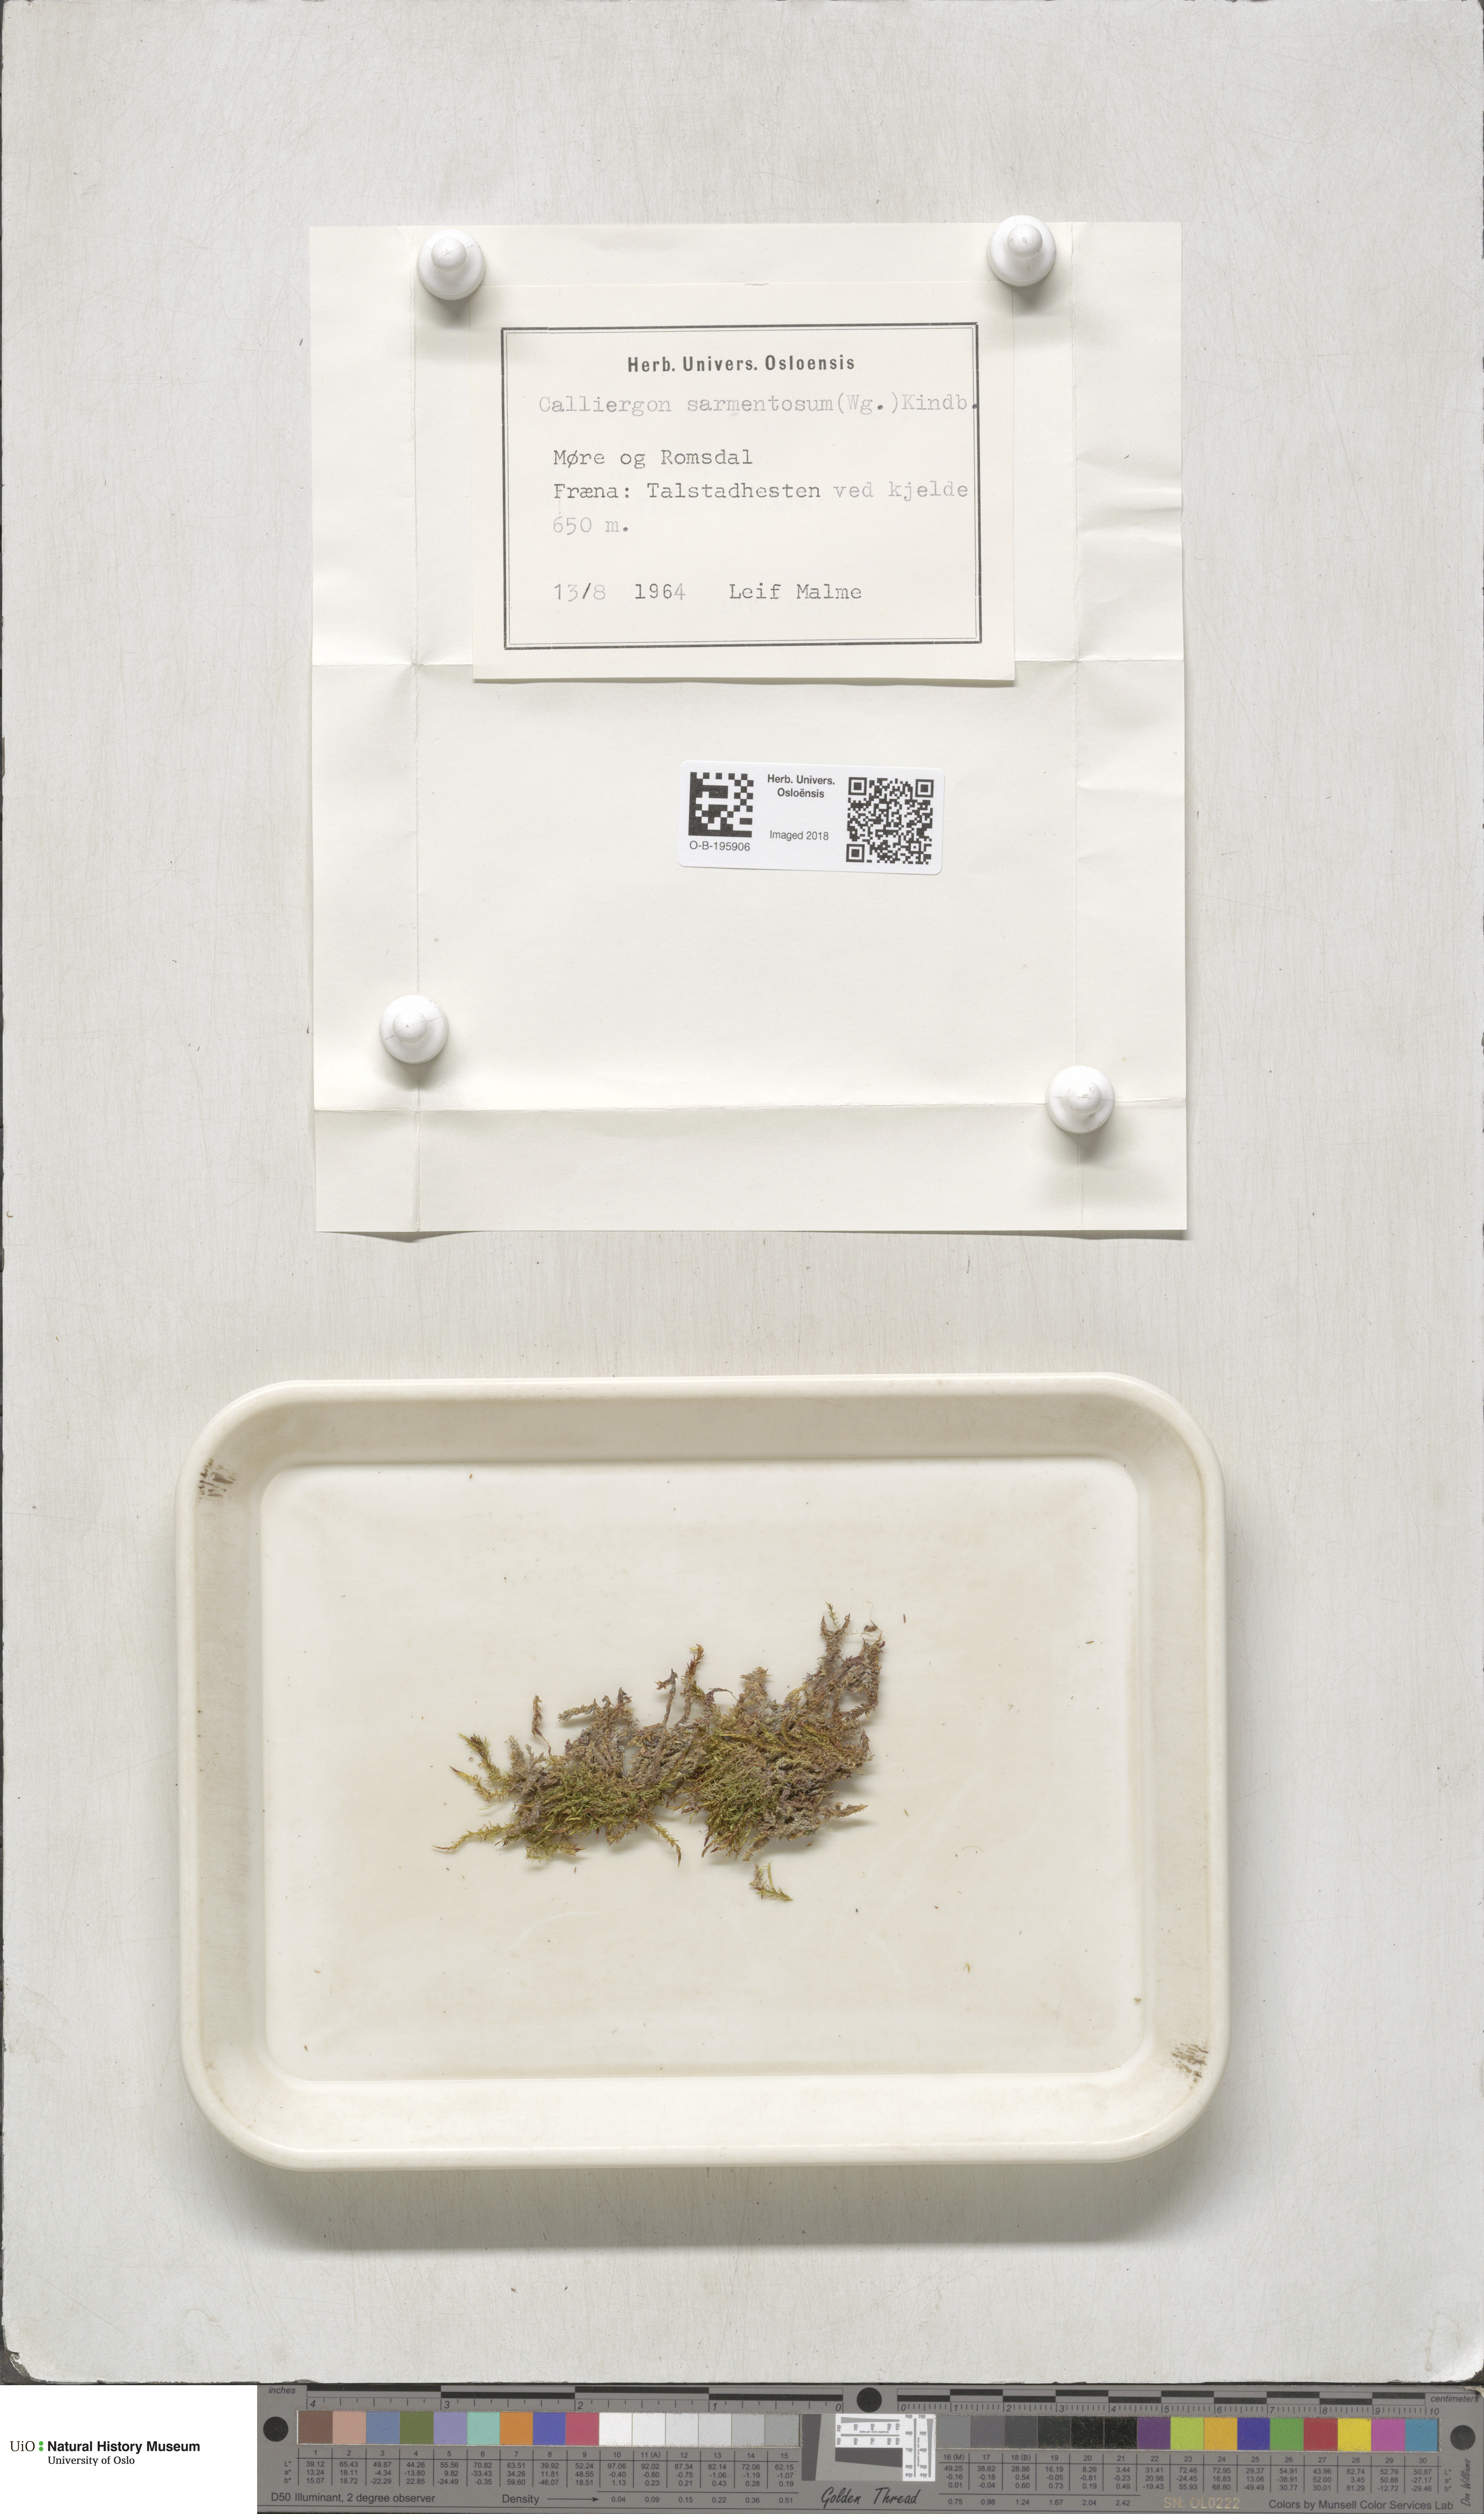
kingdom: Plantae
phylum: Bryophyta
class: Bryopsida
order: Hypnales
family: Calliergonaceae
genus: Sarmentypnum
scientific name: Sarmentypnum sarmentosum
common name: Twiggy spoon moss
